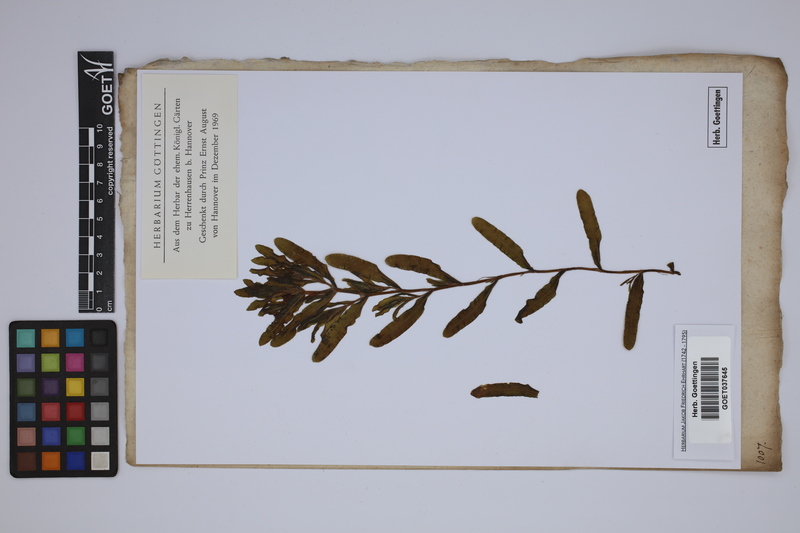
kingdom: Plantae
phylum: Tracheophyta
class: Liliopsida
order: Alismatales
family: Potamogetonaceae
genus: Potamogeton
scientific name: Potamogeton crispus
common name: Curled pondweed
